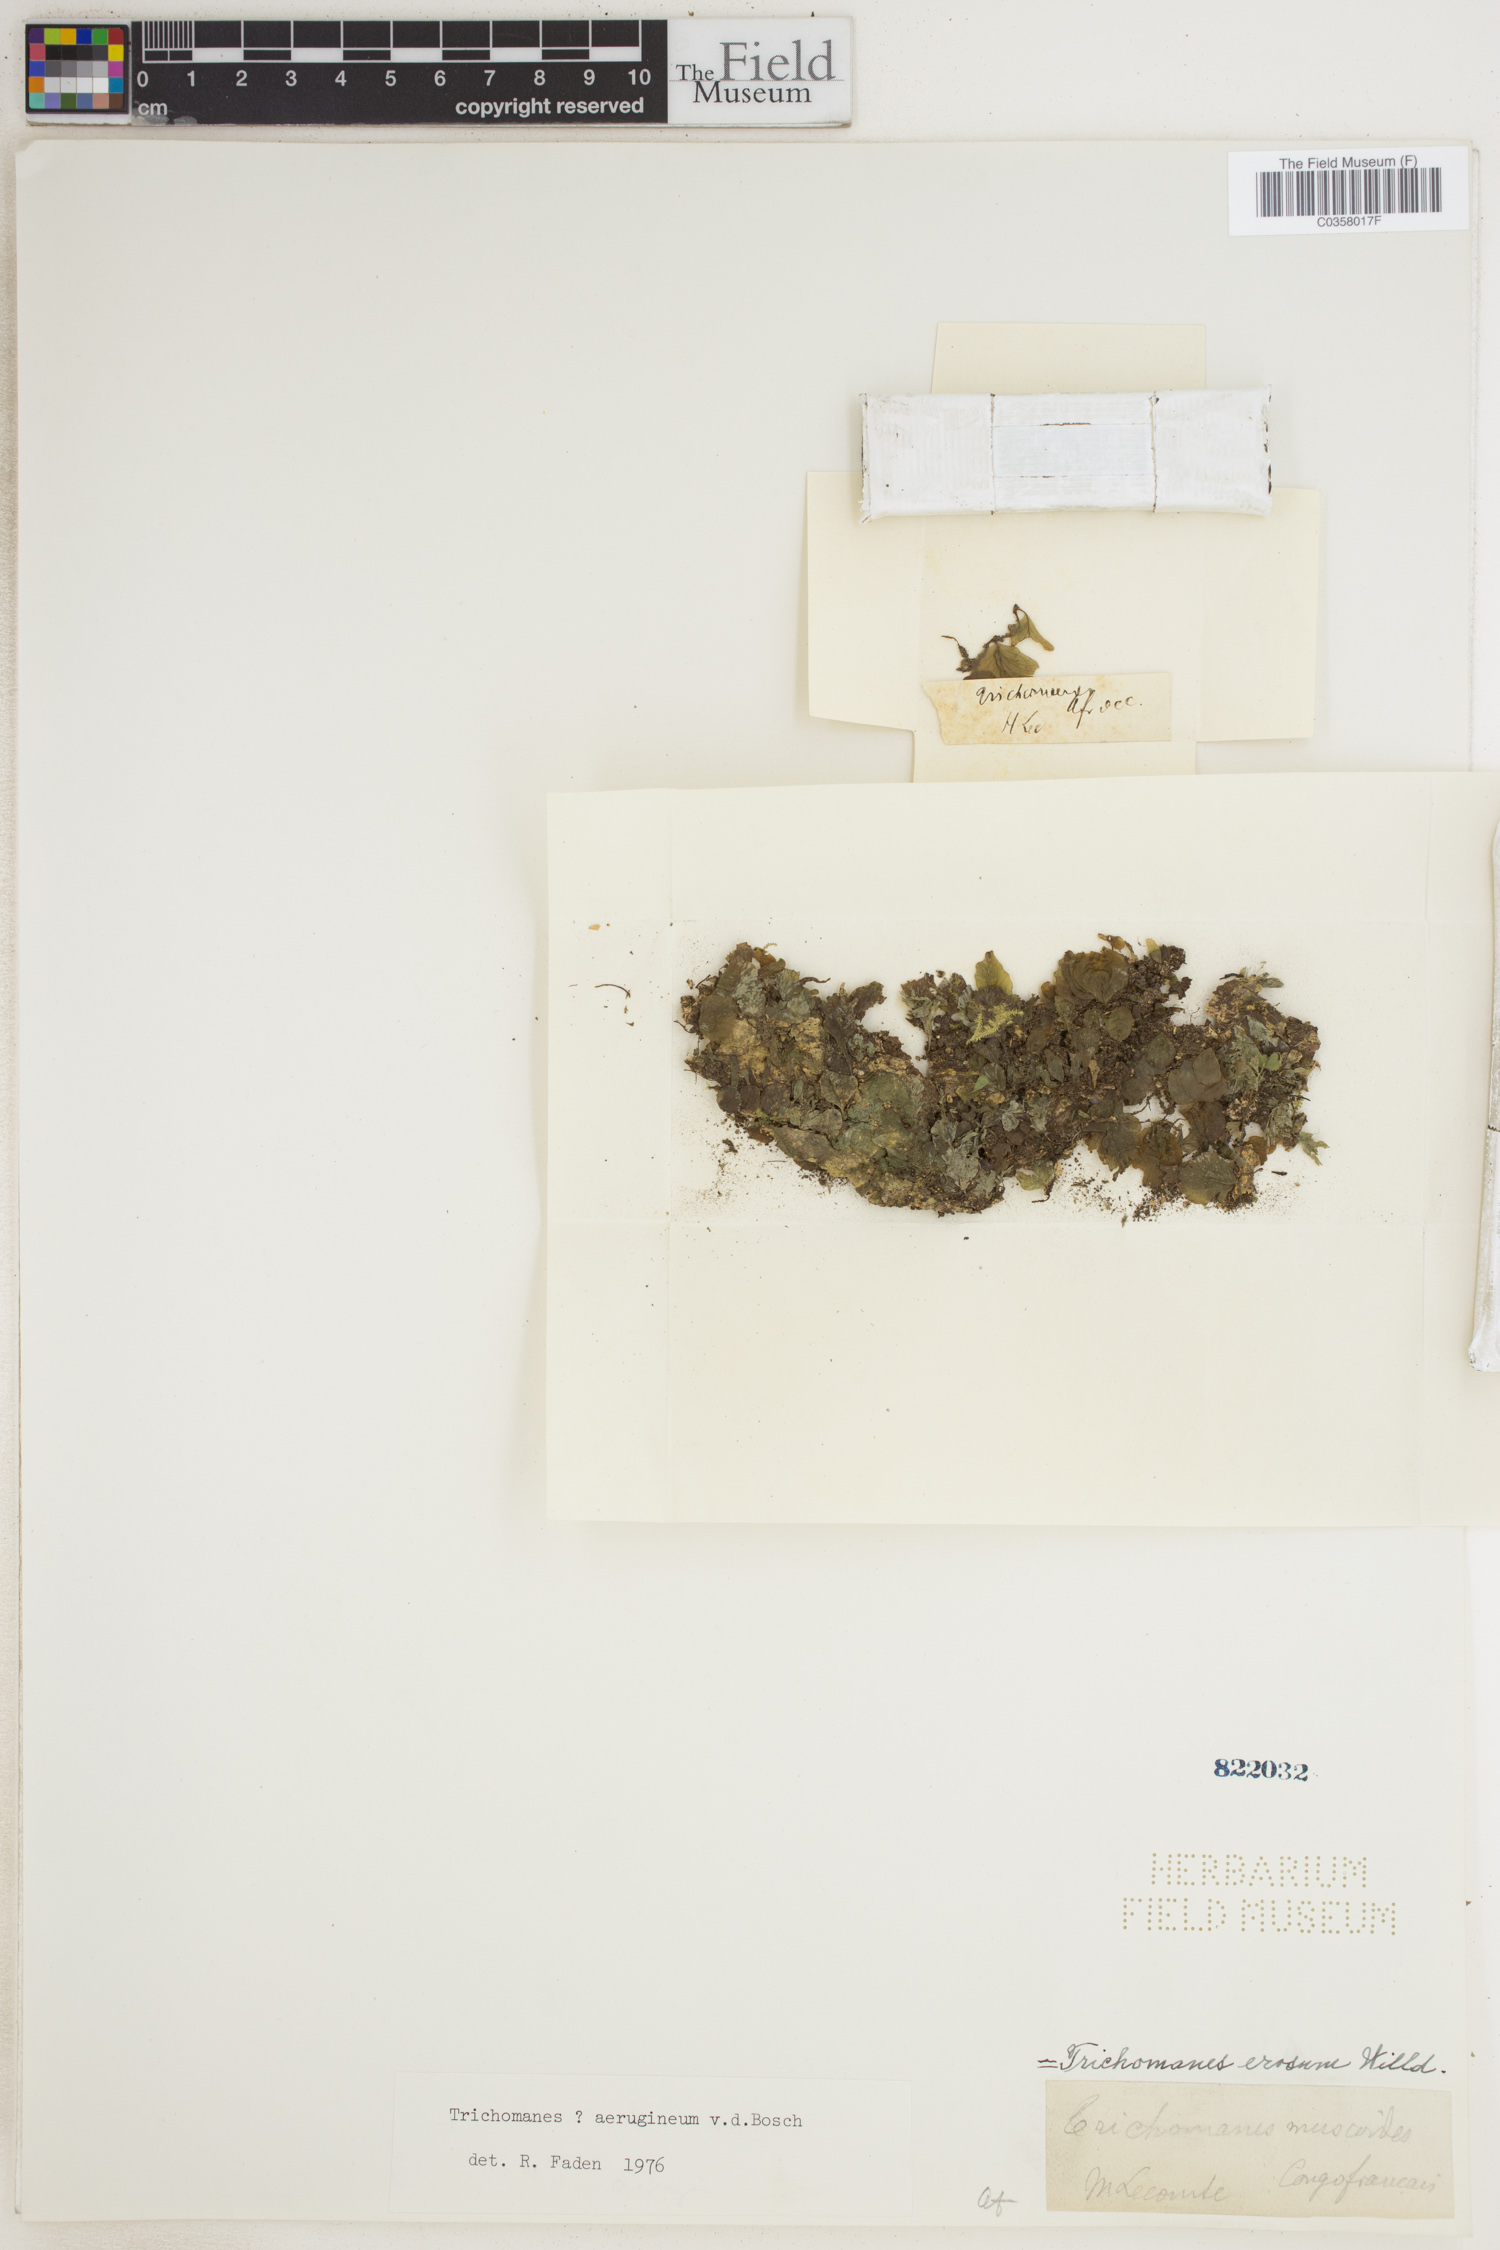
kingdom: Plantae
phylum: Tracheophyta
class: Polypodiopsida
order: Hymenophyllales
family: Hymenophyllaceae
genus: Didymoglossum
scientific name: Didymoglossum erosum
